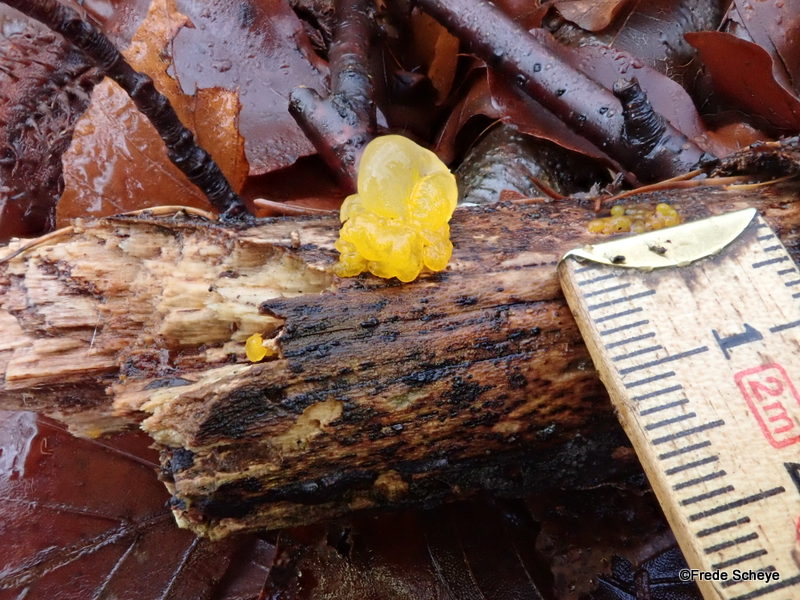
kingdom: Fungi
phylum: Basidiomycota
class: Tremellomycetes
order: Tremellales
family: Tremellaceae
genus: Tremella
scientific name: Tremella mesenterica
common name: gul bævresvamp
